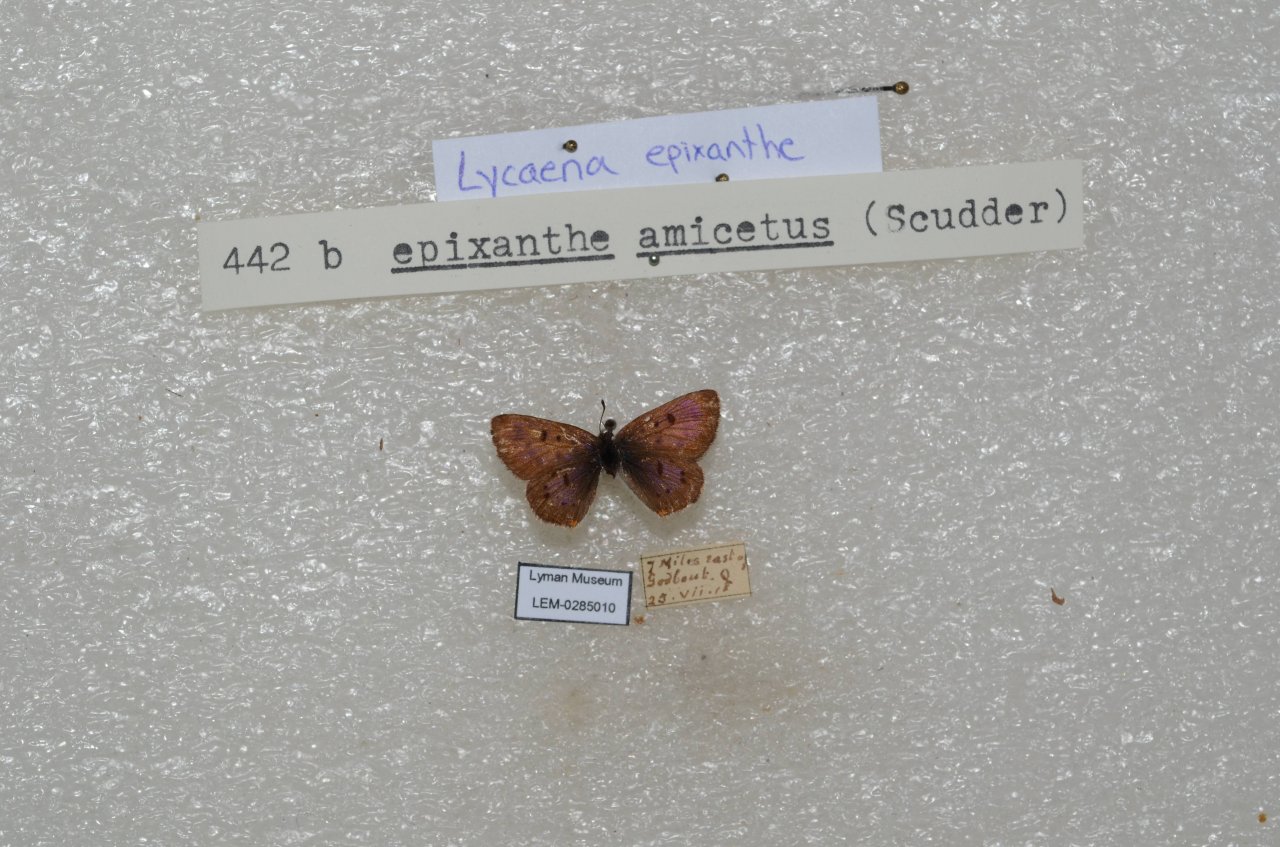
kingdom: Animalia
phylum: Arthropoda
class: Insecta
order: Lepidoptera
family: Sesiidae
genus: Sesia
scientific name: Sesia Lycaena epixanthe
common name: Bog Copper
